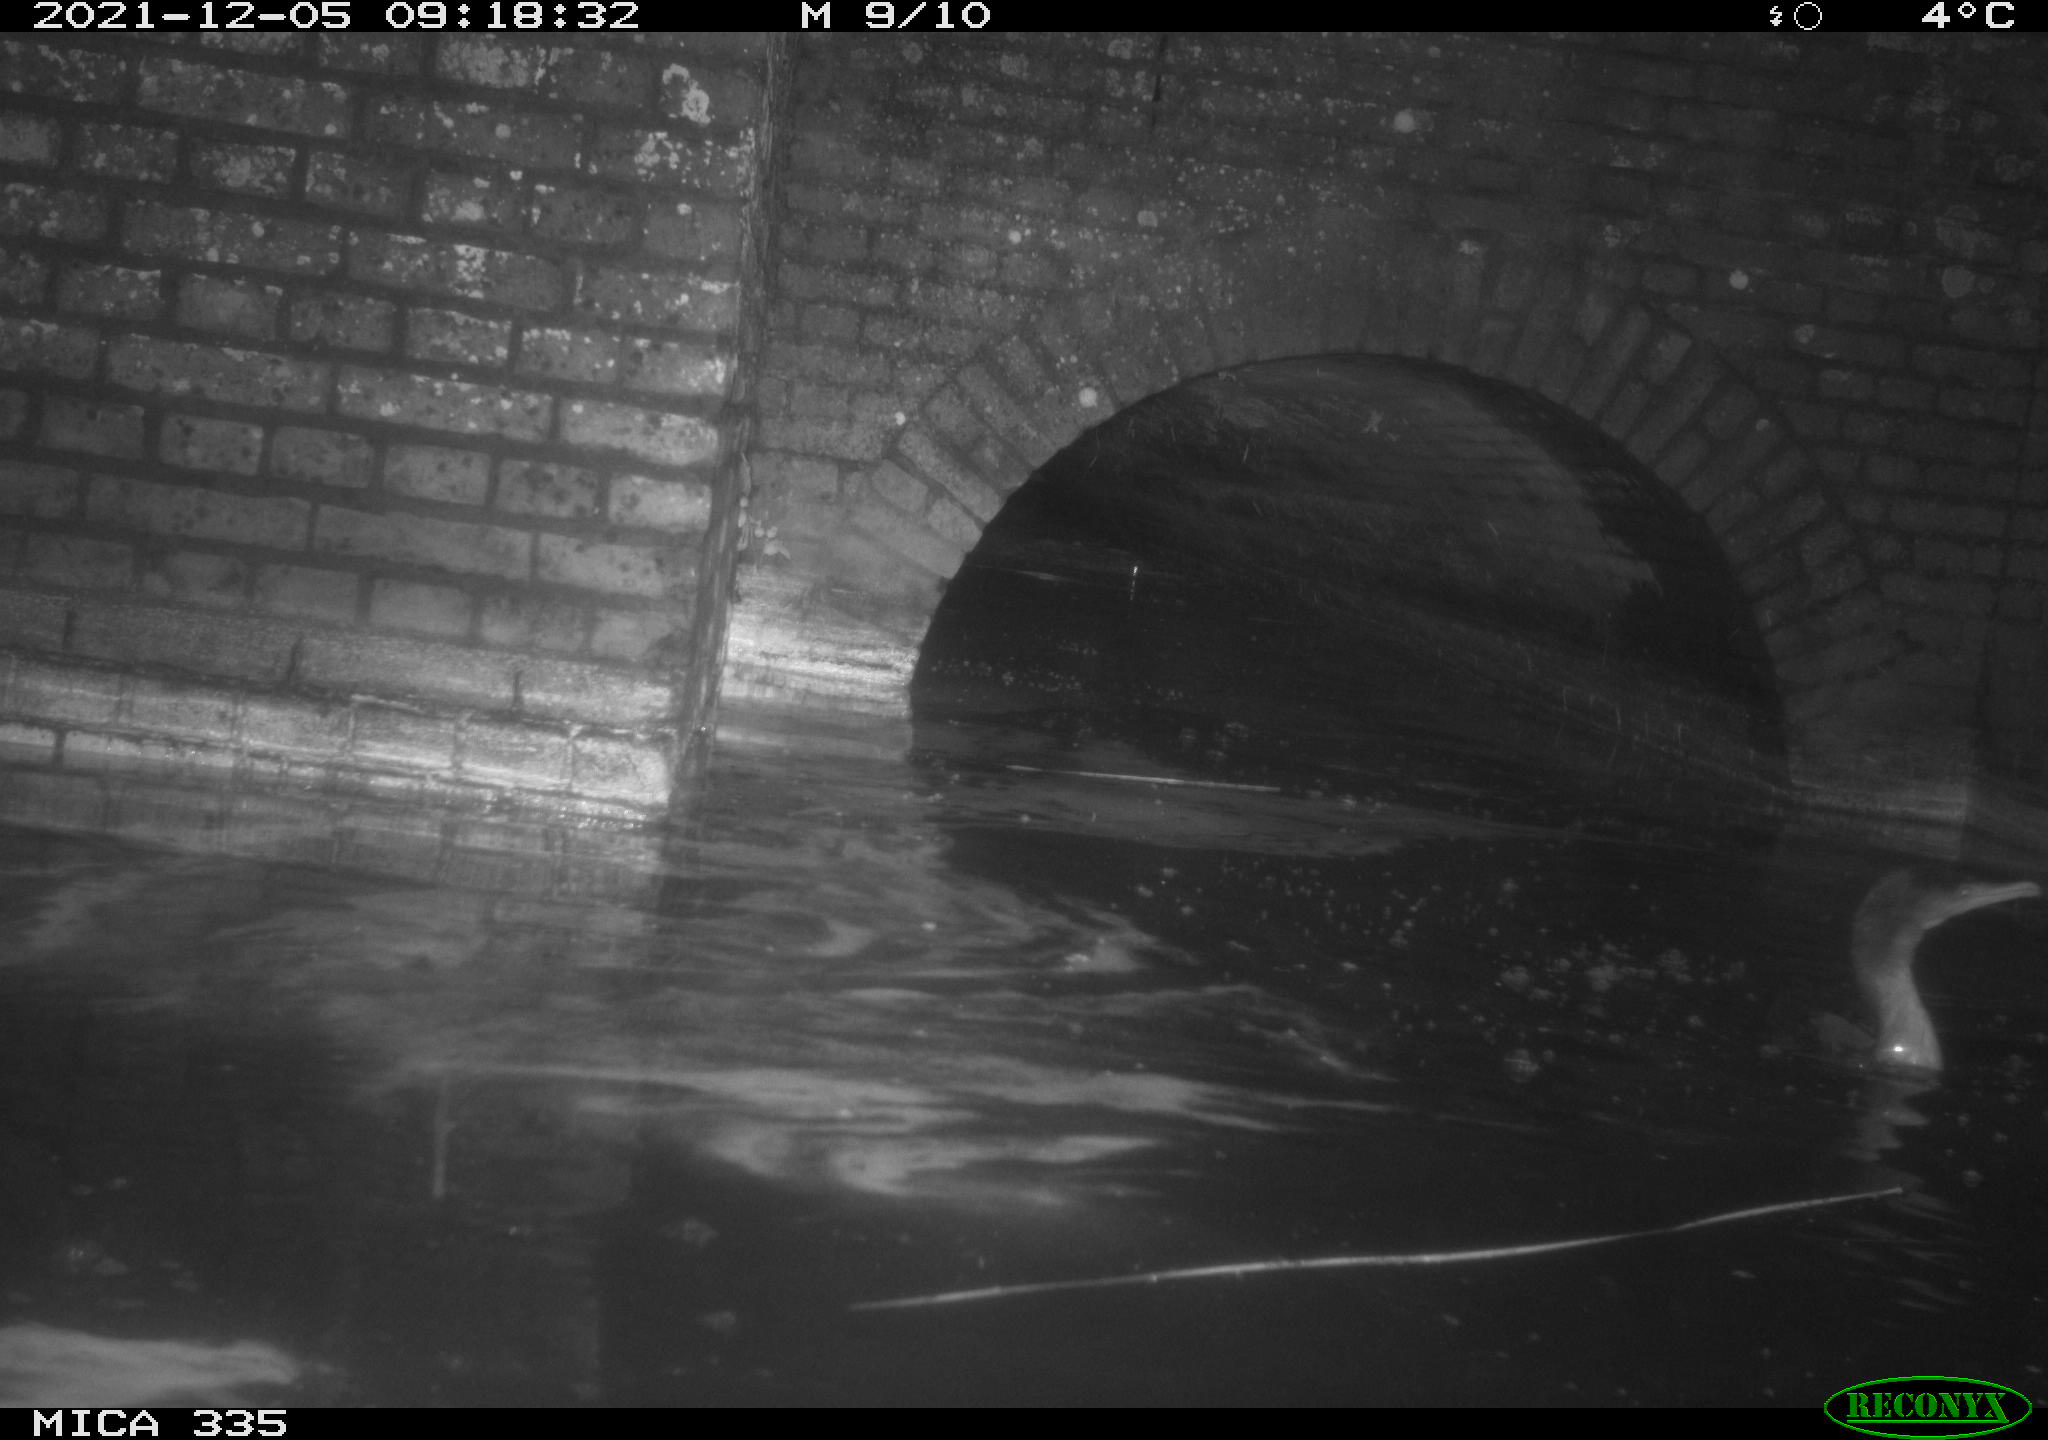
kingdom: Animalia
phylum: Chordata
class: Aves
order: Suliformes
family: Phalacrocoracidae
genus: Phalacrocorax
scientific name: Phalacrocorax carbo
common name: Great cormorant
